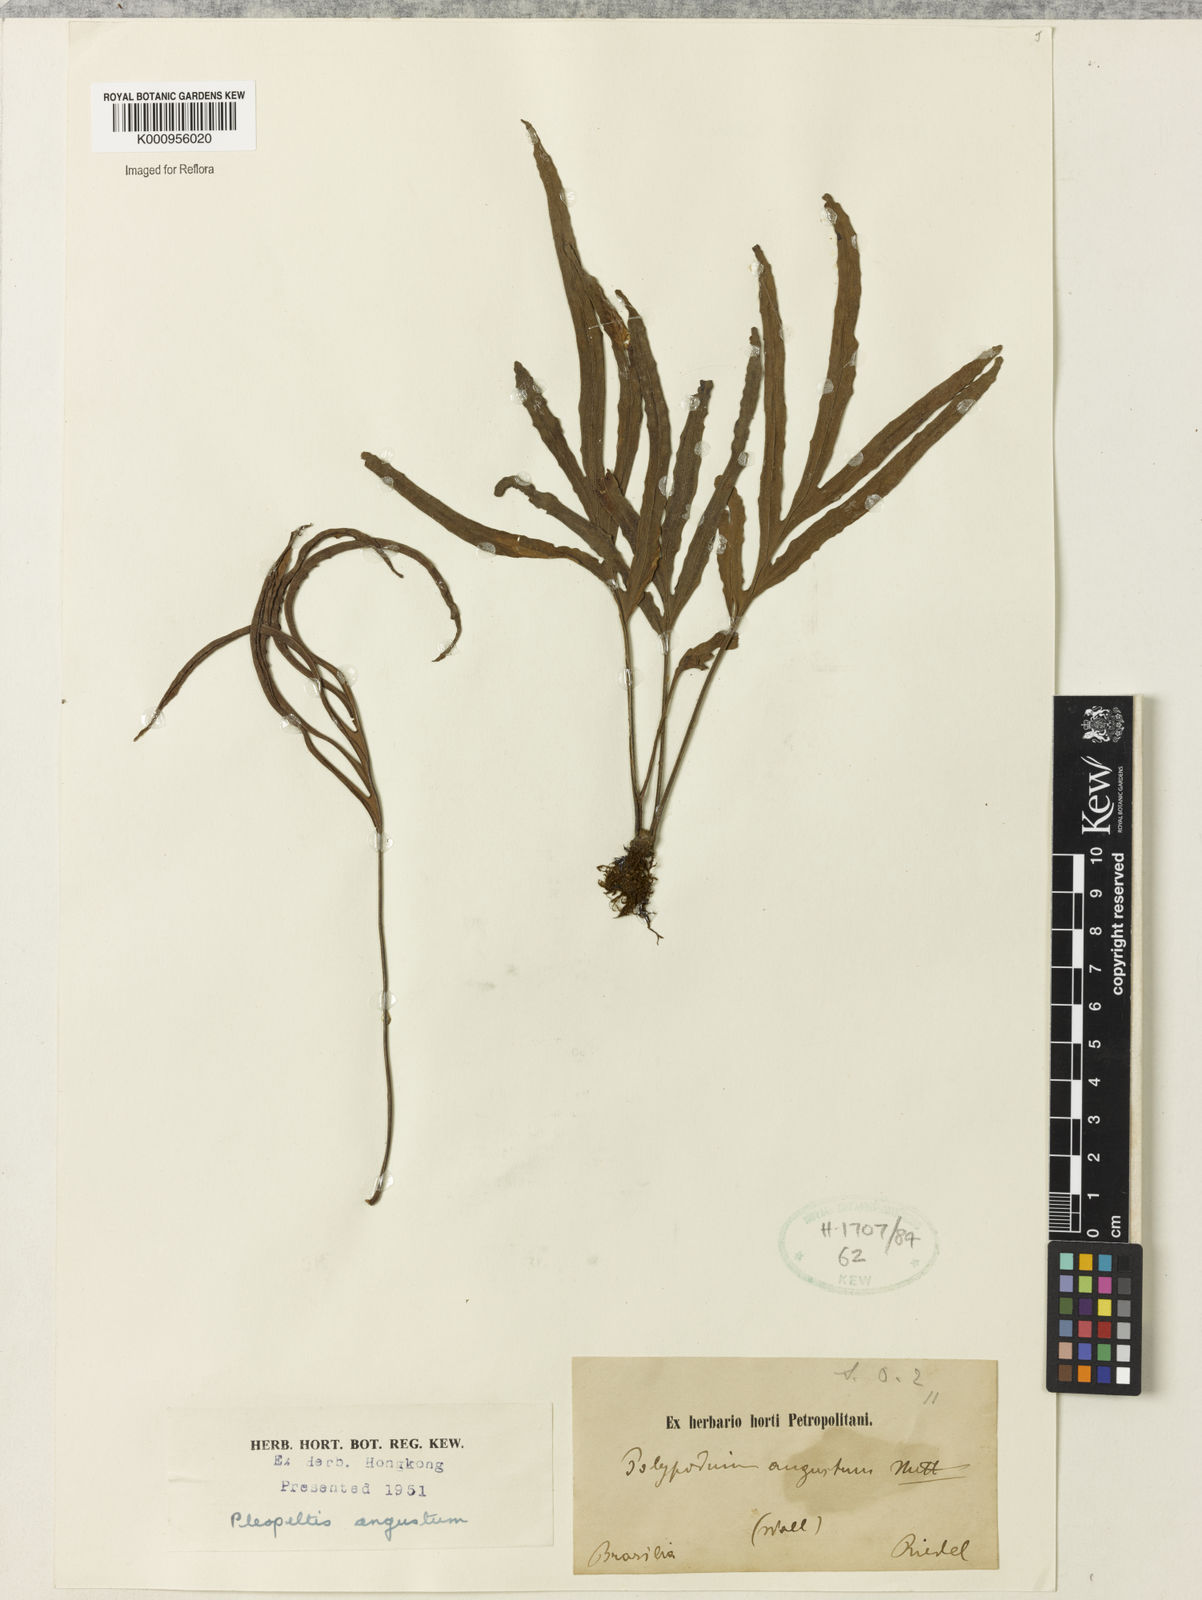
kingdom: Plantae
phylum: Tracheophyta
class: Polypodiopsida
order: Polypodiales
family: Polypodiaceae
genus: Pleopeltis
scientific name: Pleopeltis angusta
